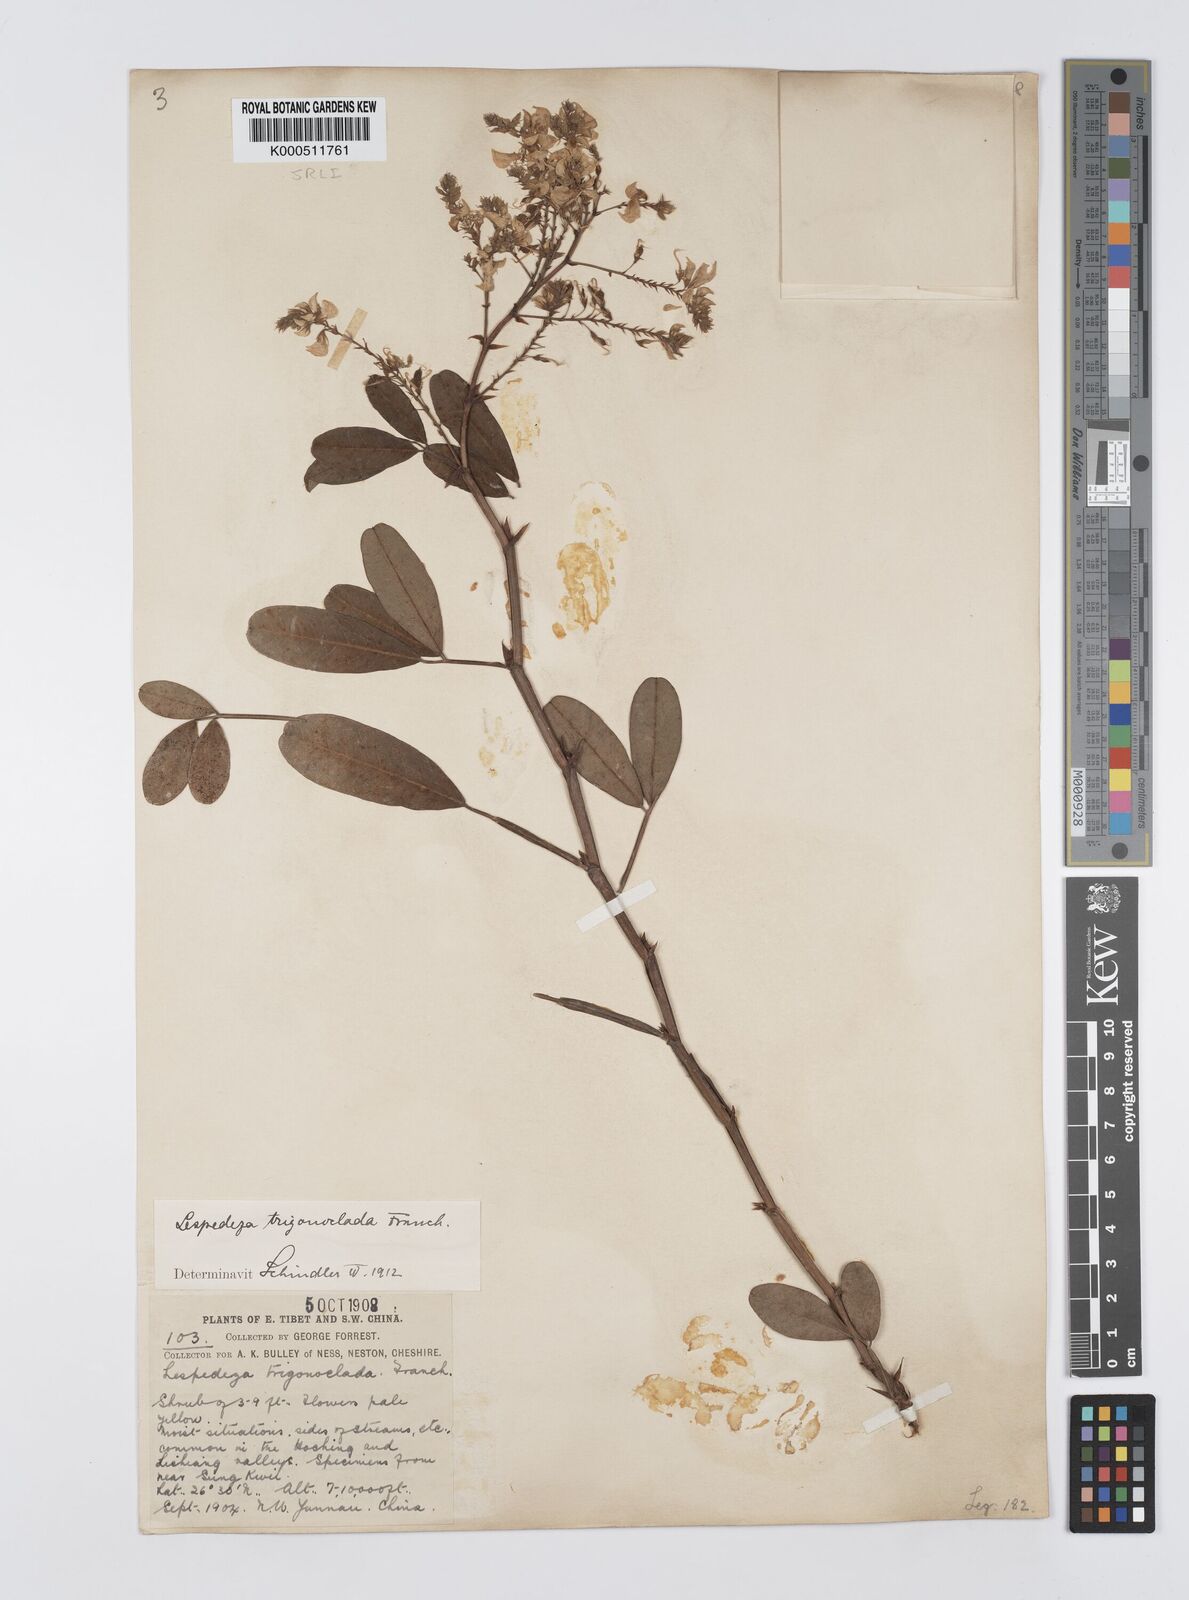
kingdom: Plantae
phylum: Tracheophyta
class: Magnoliopsida
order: Fabales
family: Fabaceae
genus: Campylotropis
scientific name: Campylotropis trigonoclada
